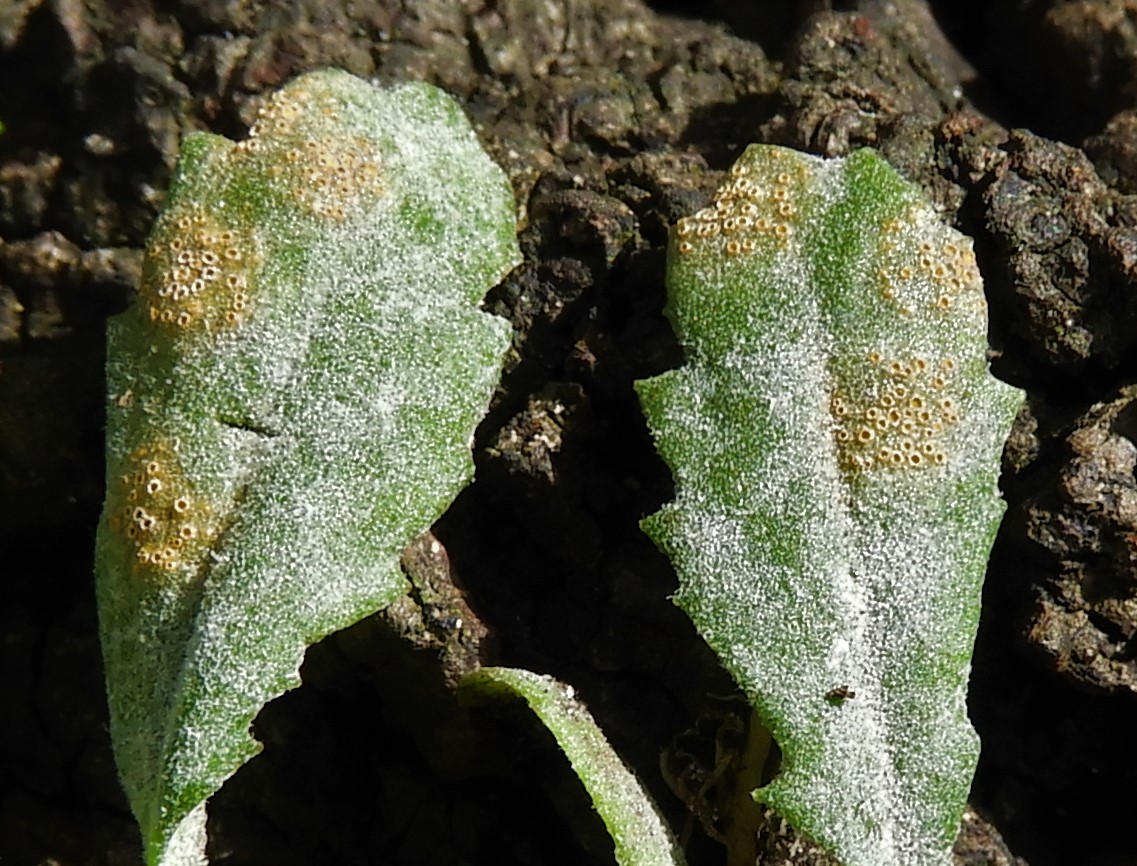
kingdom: Fungi
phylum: Basidiomycota
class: Pucciniomycetes
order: Pucciniales
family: Pucciniaceae
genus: Puccinia
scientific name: Puccinia lagenophorae
